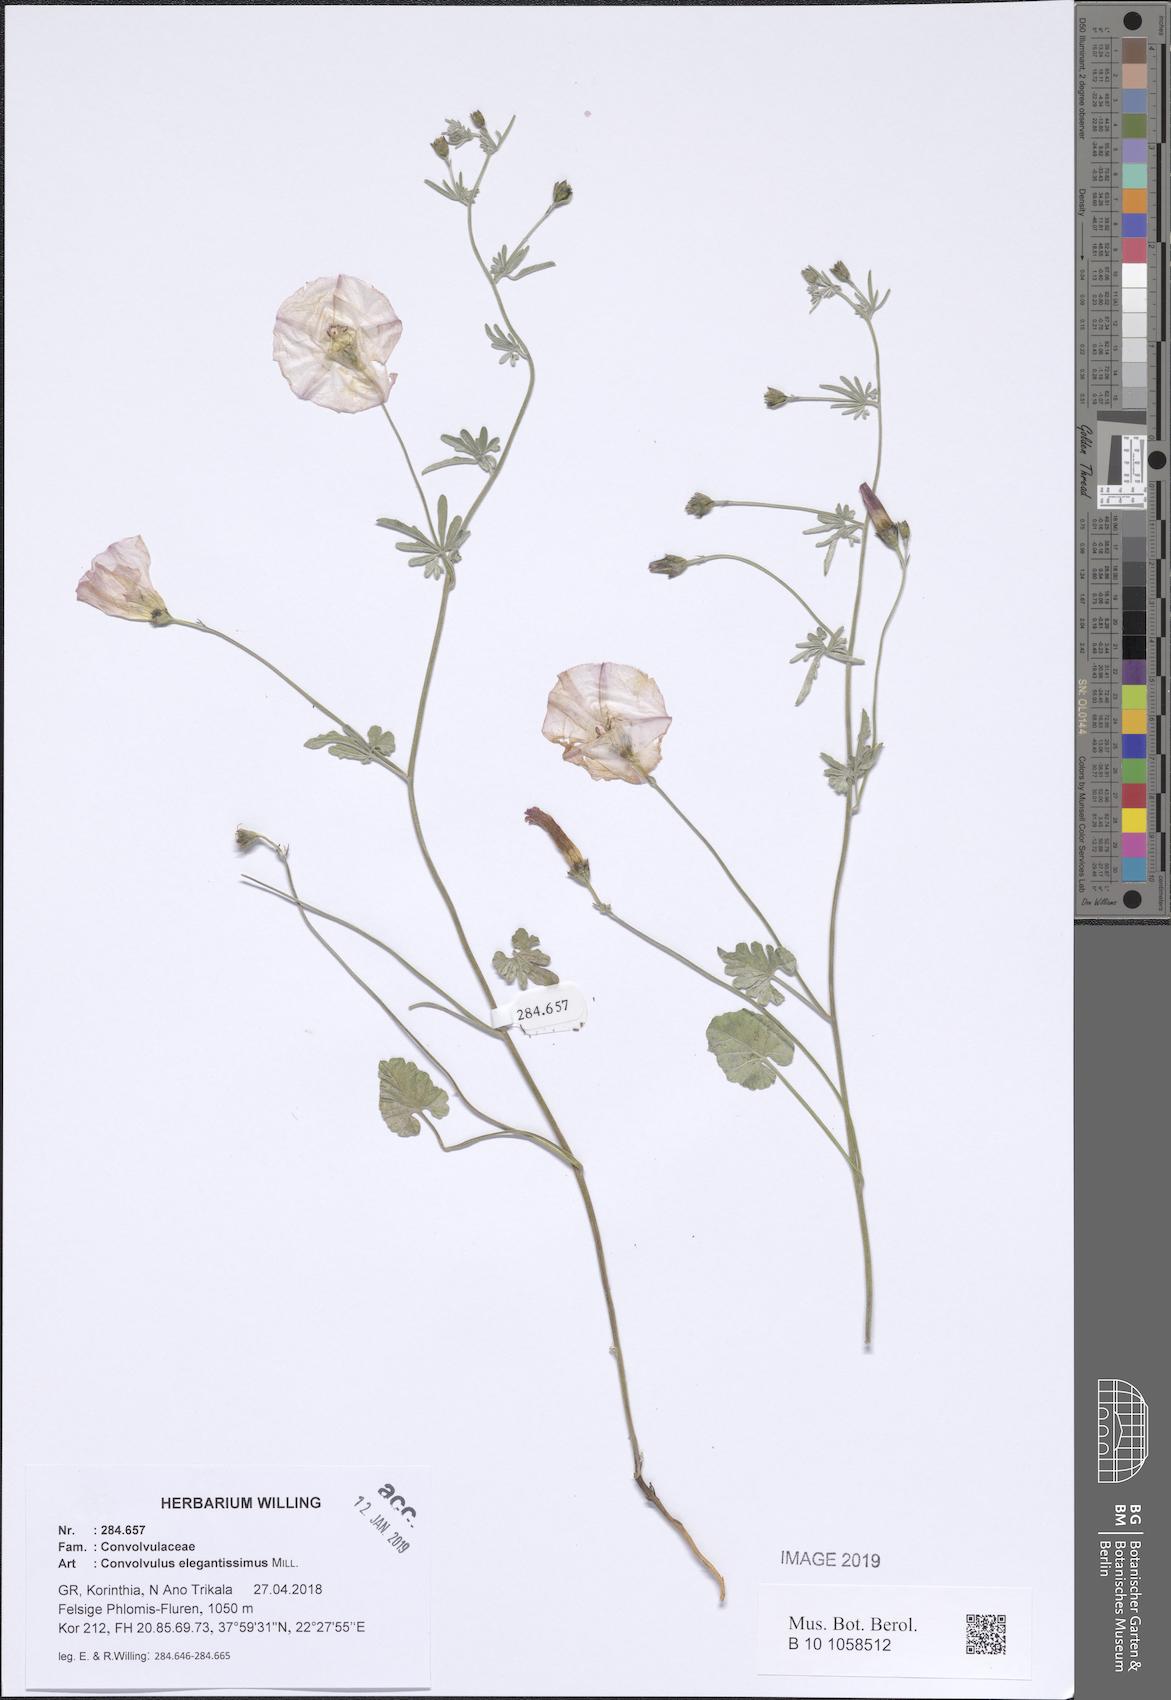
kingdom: Plantae
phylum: Tracheophyta
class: Magnoliopsida
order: Solanales
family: Convolvulaceae
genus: Convolvulus
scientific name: Convolvulus elegantissimus
